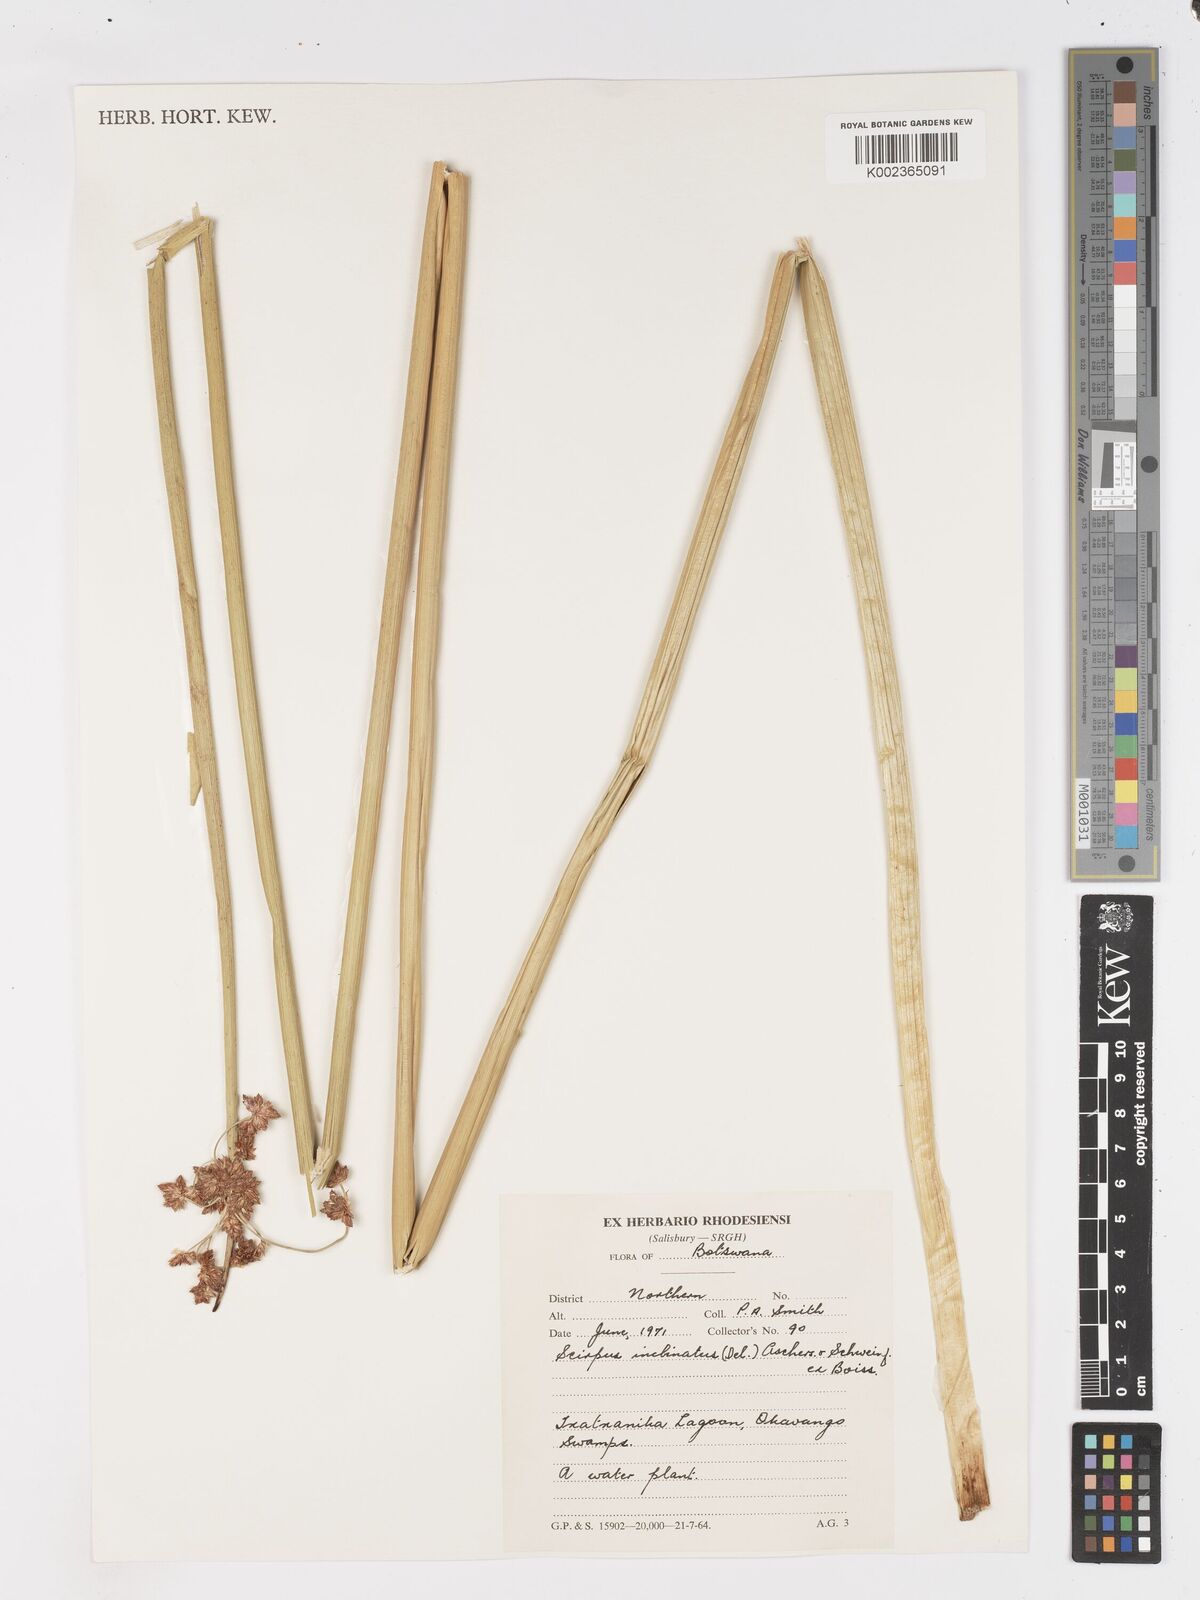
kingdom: Plantae
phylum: Tracheophyta
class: Liliopsida
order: Poales
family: Cyperaceae
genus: Schoenoplectiella
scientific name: Schoenoplectiella brachyceras
